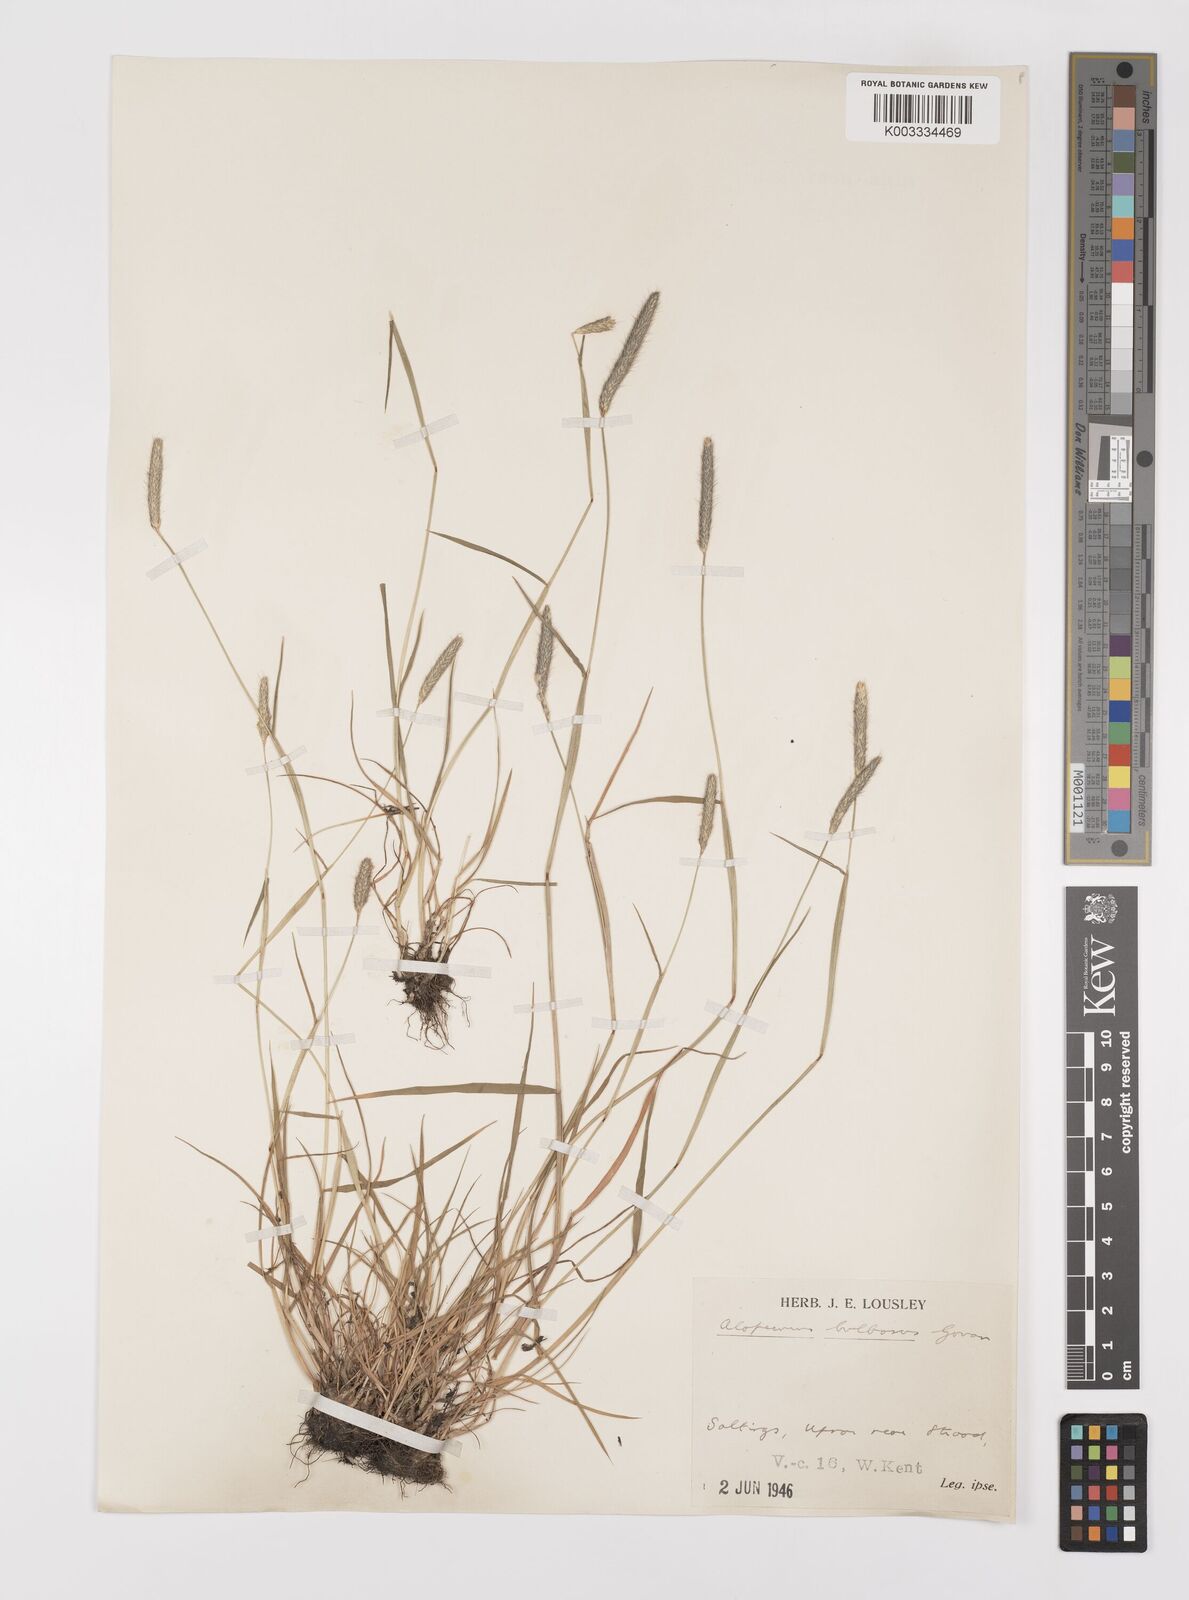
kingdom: Plantae
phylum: Tracheophyta
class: Liliopsida
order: Poales
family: Poaceae
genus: Alopecurus
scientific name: Alopecurus bulbosus
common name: Bulbous foxtail
